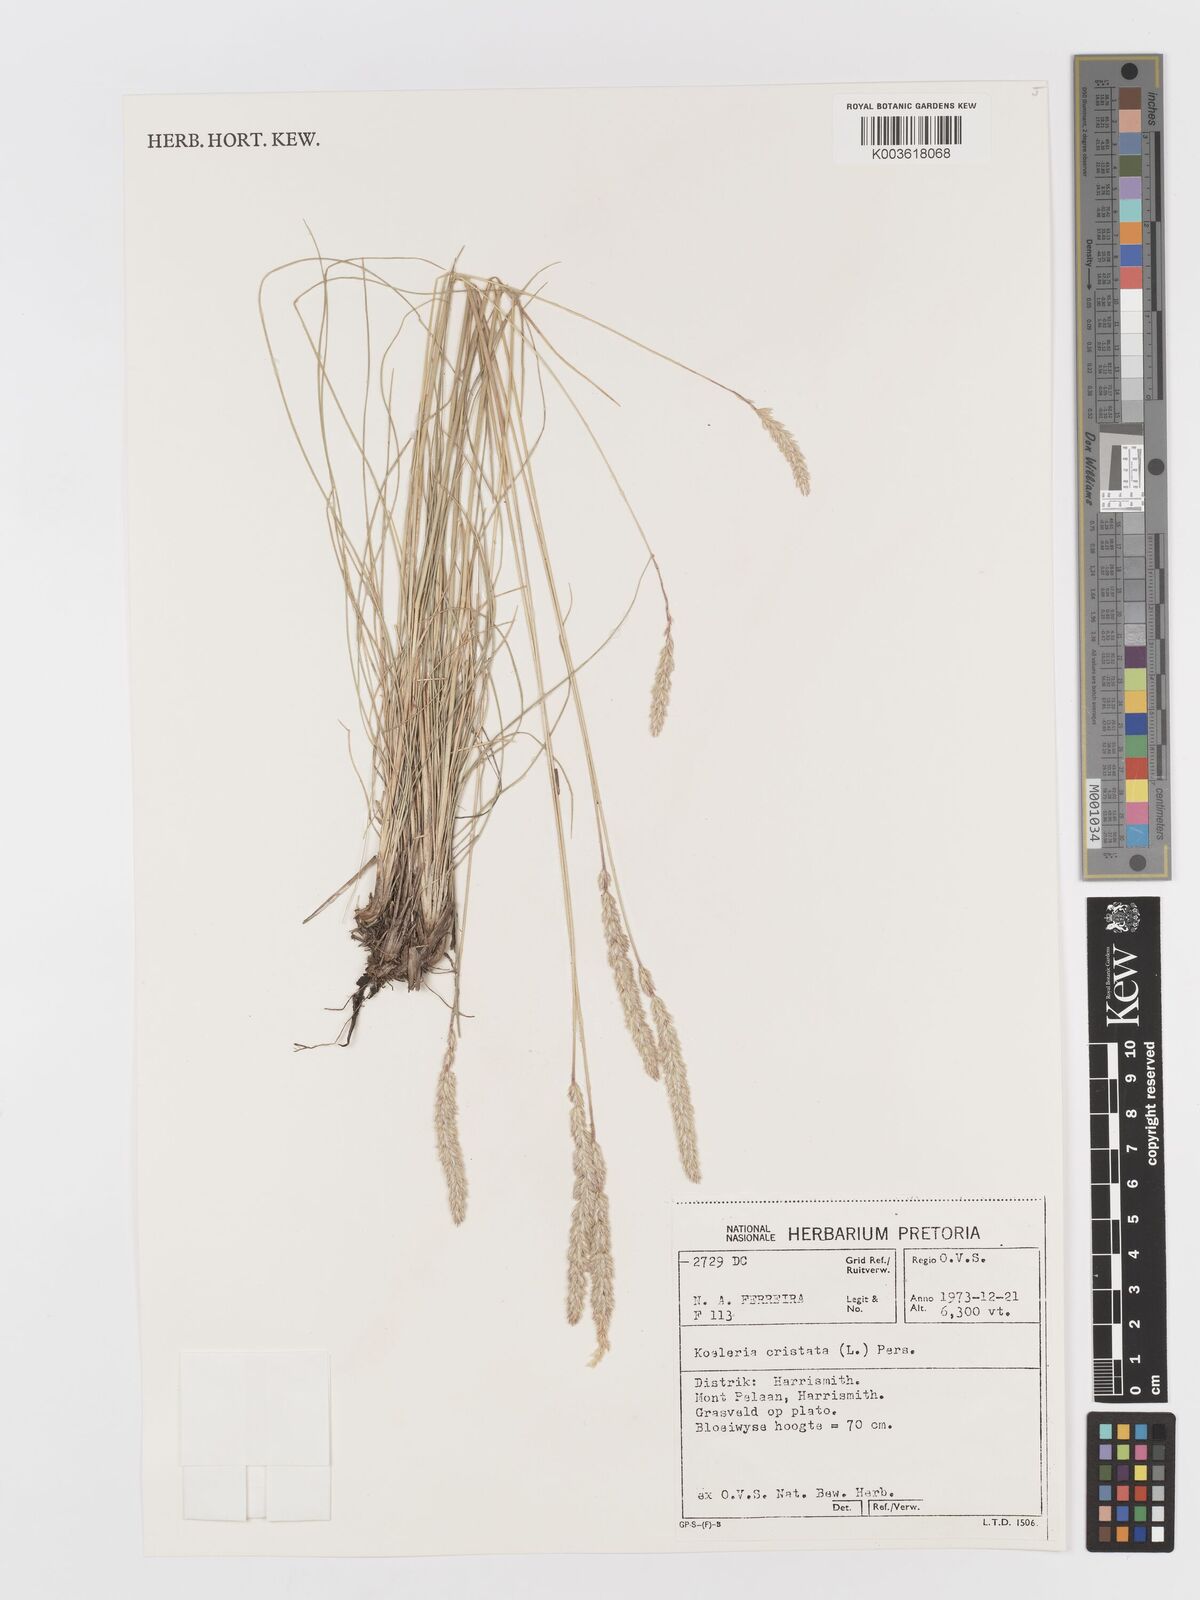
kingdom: Plantae
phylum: Tracheophyta
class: Liliopsida
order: Poales
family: Poaceae
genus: Koeleria
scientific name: Koeleria capensis
